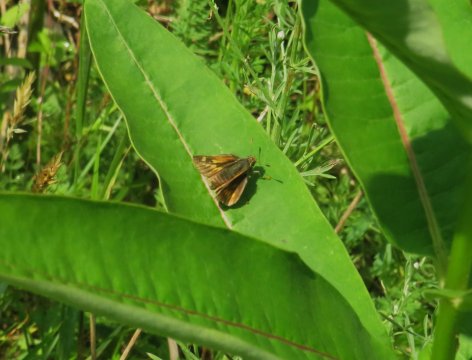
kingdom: Animalia
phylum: Arthropoda
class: Insecta
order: Lepidoptera
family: Hesperiidae
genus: Polites
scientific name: Polites
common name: Long Dash Skipper
